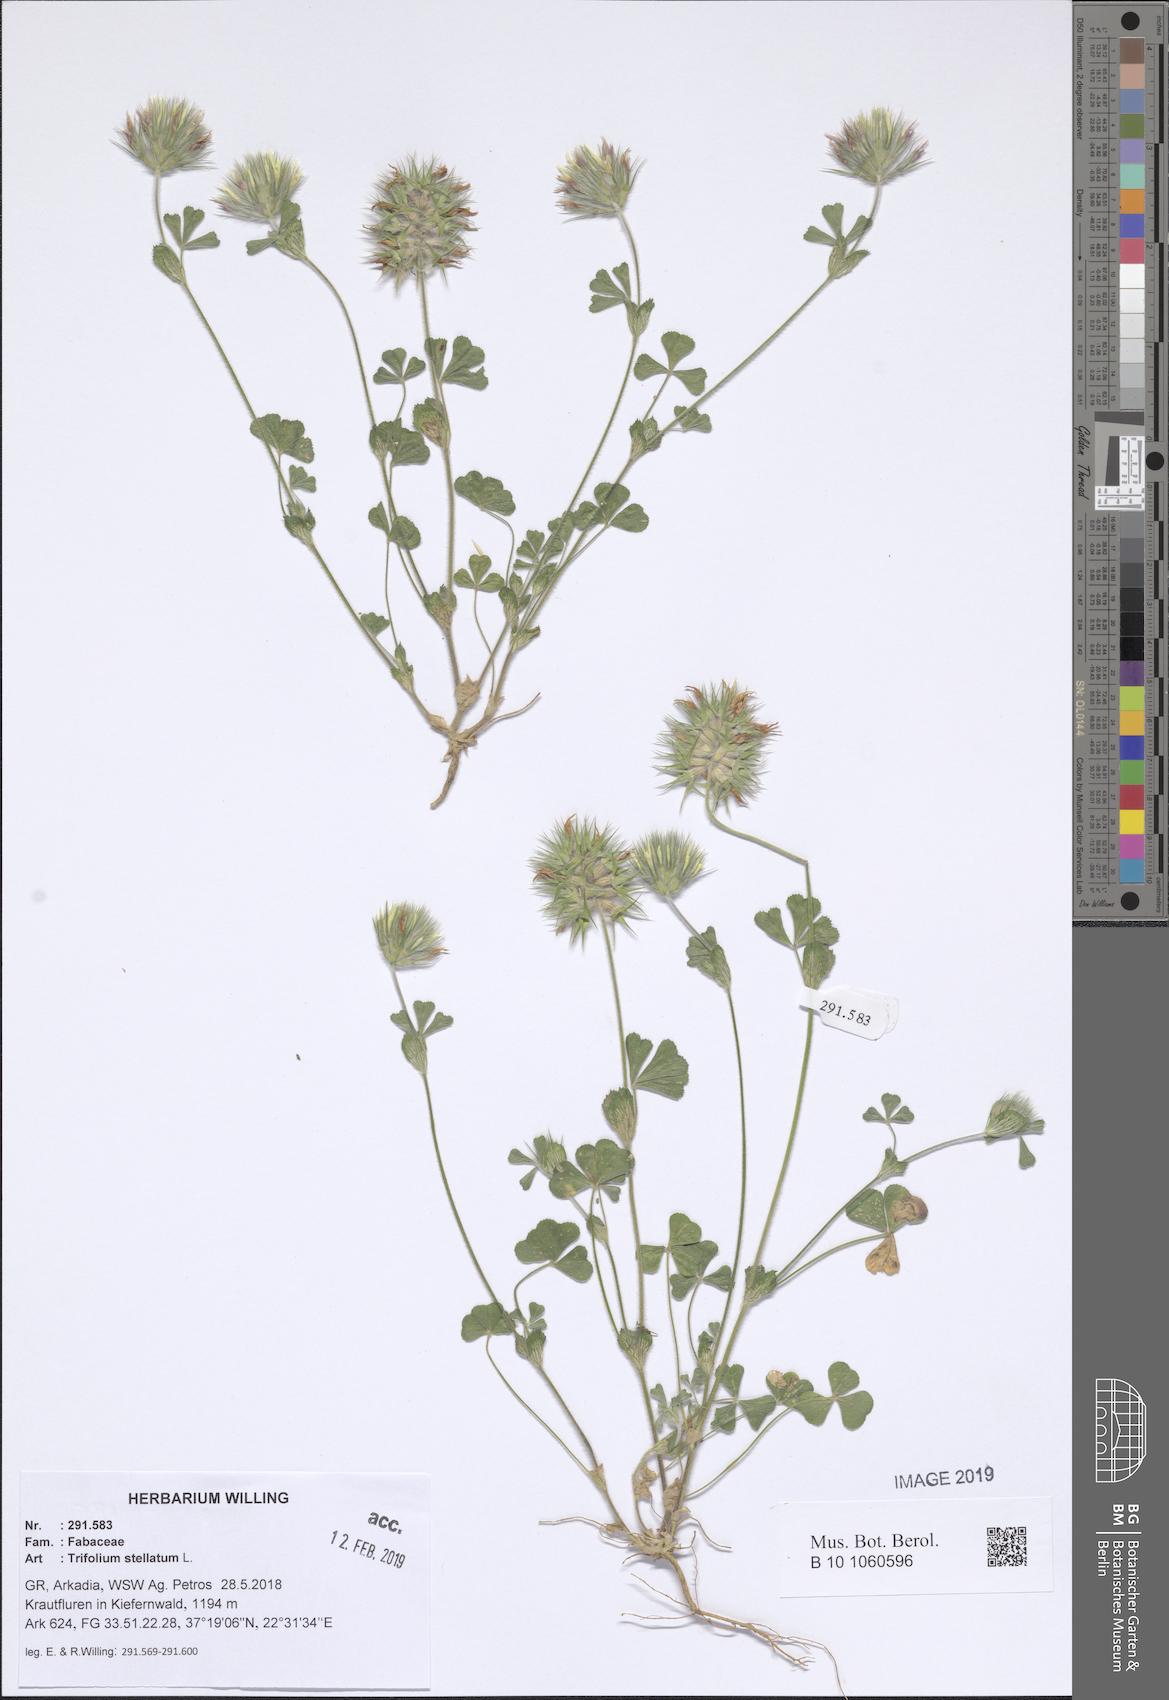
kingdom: Plantae
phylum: Tracheophyta
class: Magnoliopsida
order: Fabales
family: Fabaceae
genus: Trifolium
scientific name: Trifolium stellatum
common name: Starry clover
